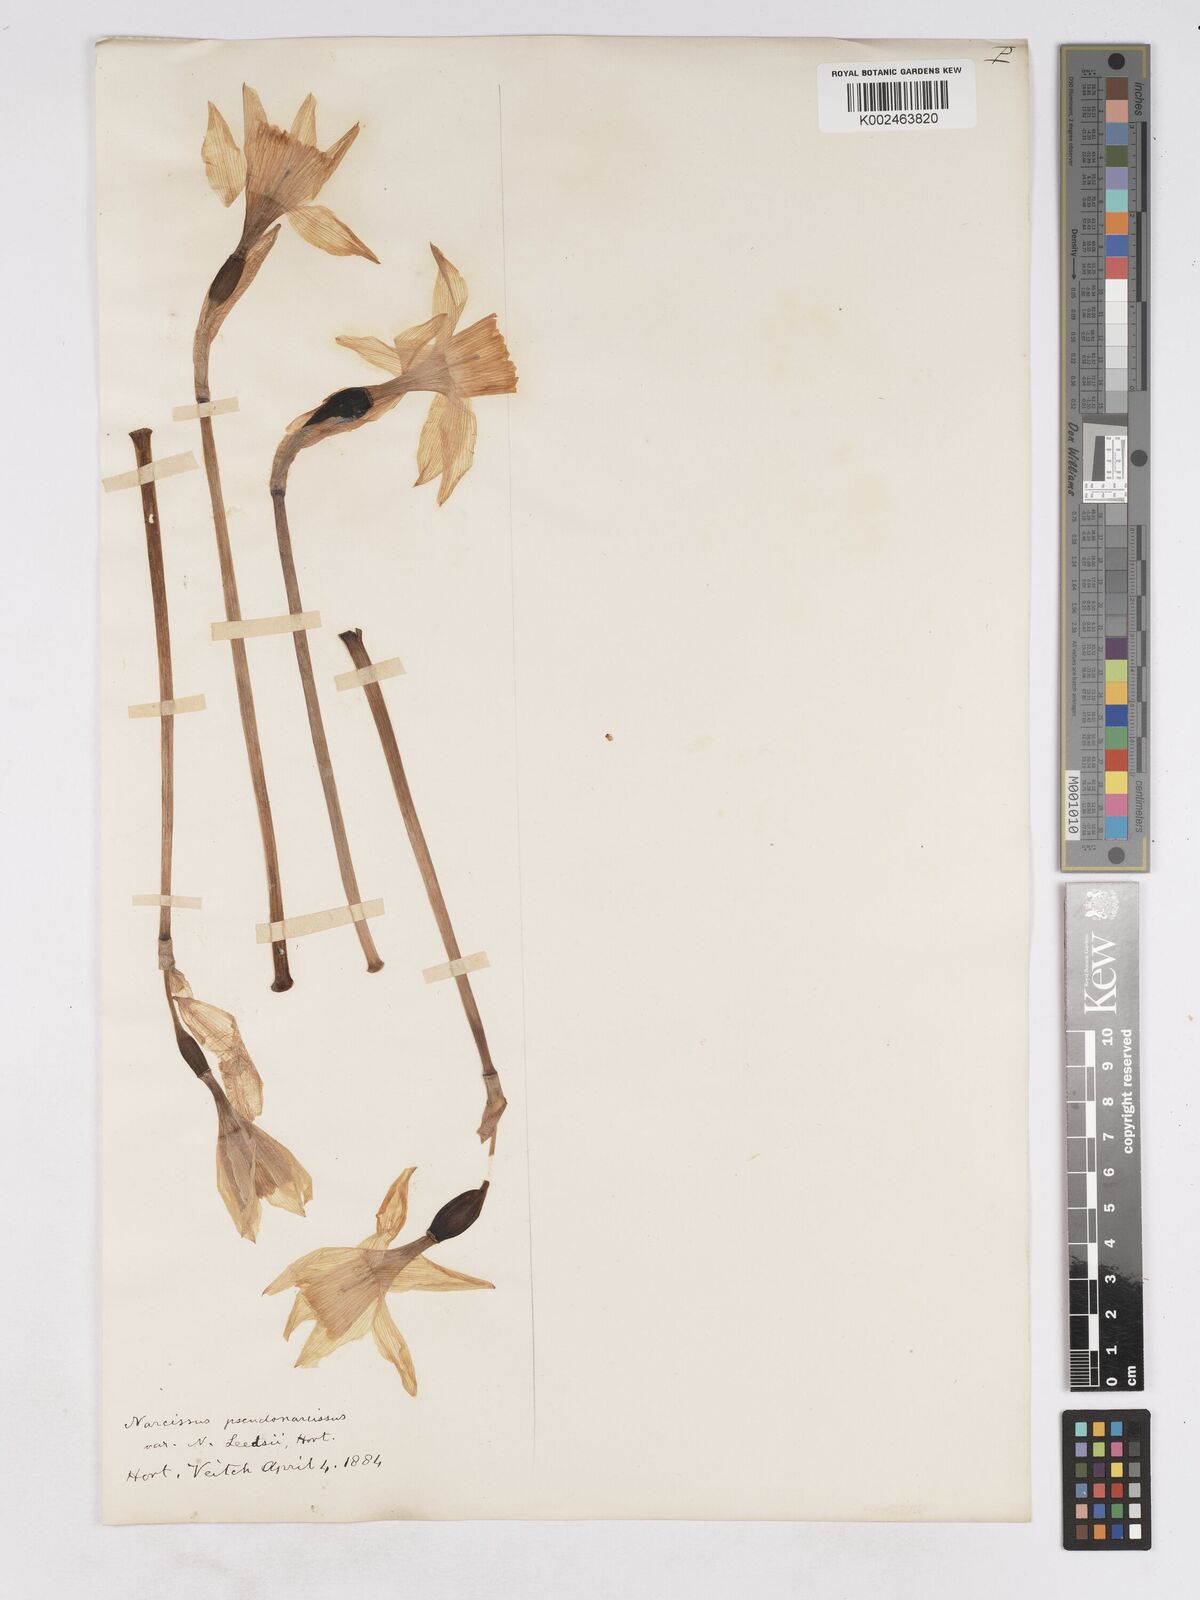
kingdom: Plantae
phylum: Tracheophyta
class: Liliopsida
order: Asparagales
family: Amaryllidaceae
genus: Narcissus
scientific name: Narcissus leedsii
